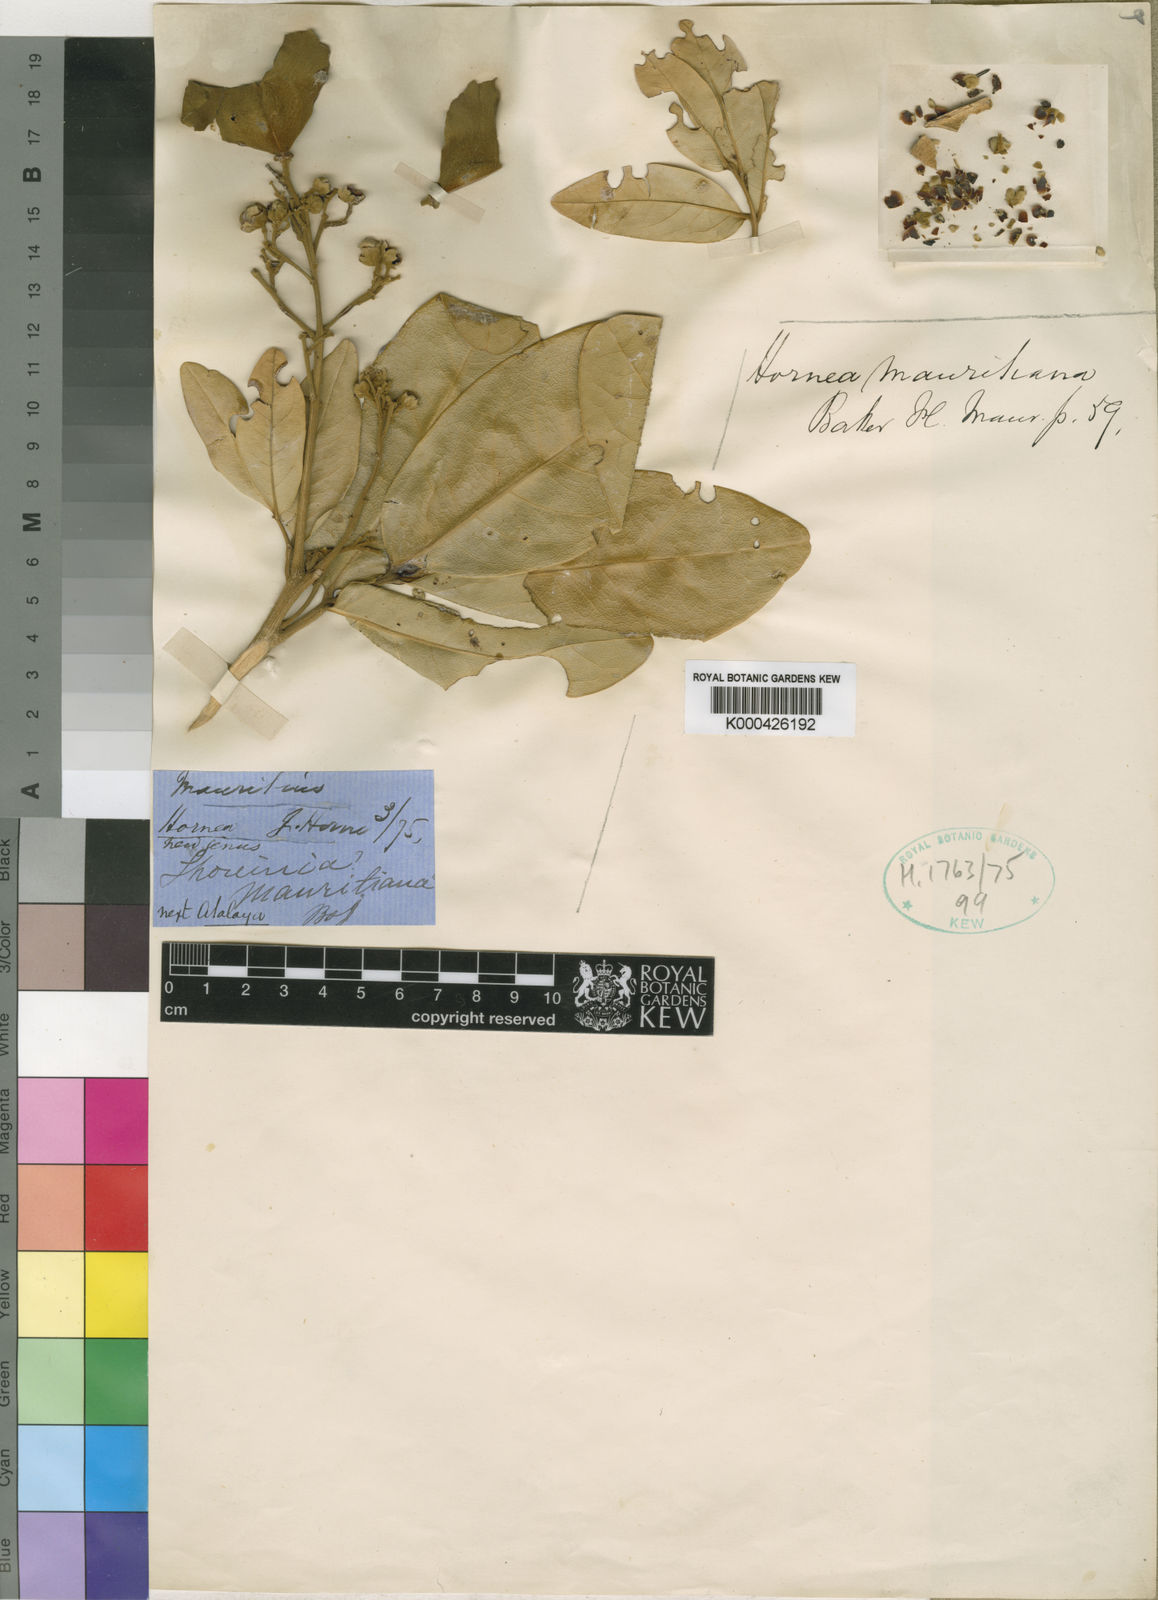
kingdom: Plantae
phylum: Tracheophyta
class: Magnoliopsida
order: Sapindales
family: Sapindaceae
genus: Hornea
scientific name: Hornea mauritiana
